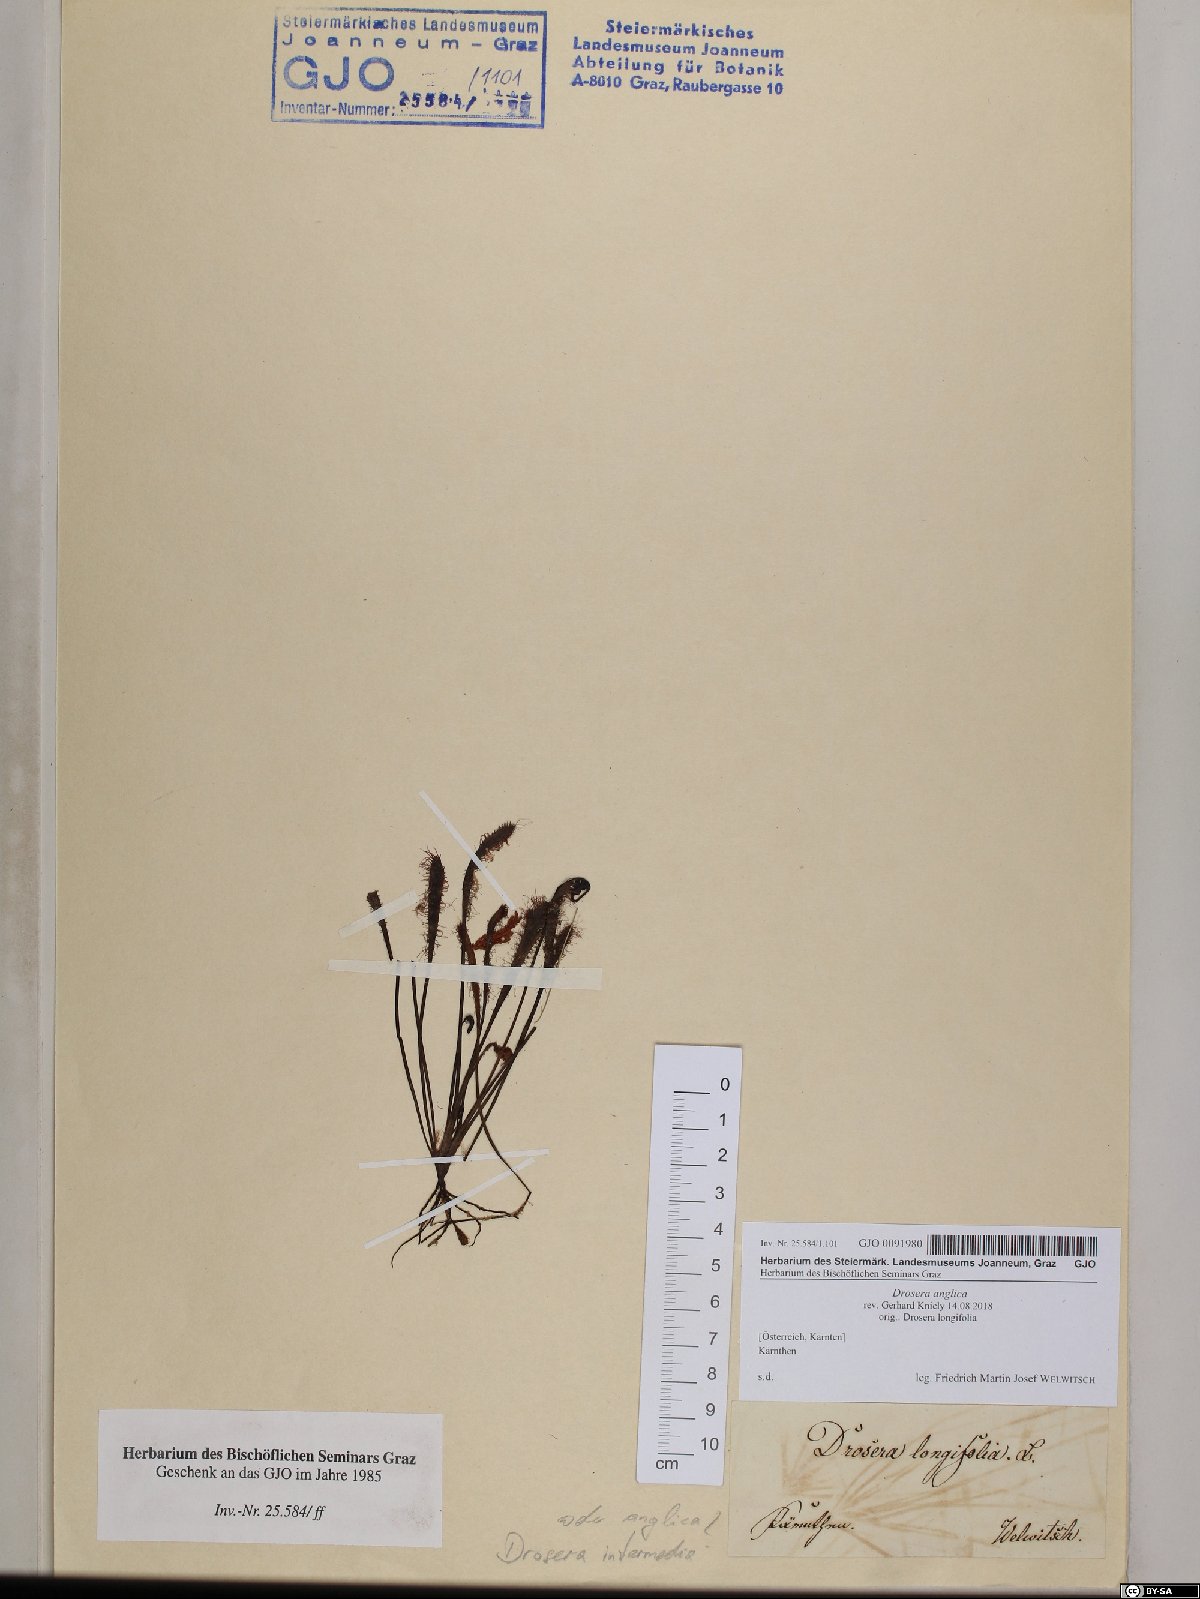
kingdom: Plantae
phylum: Tracheophyta
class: Magnoliopsida
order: Caryophyllales
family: Droseraceae
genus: Drosera
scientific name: Drosera anglica
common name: Great sundew
